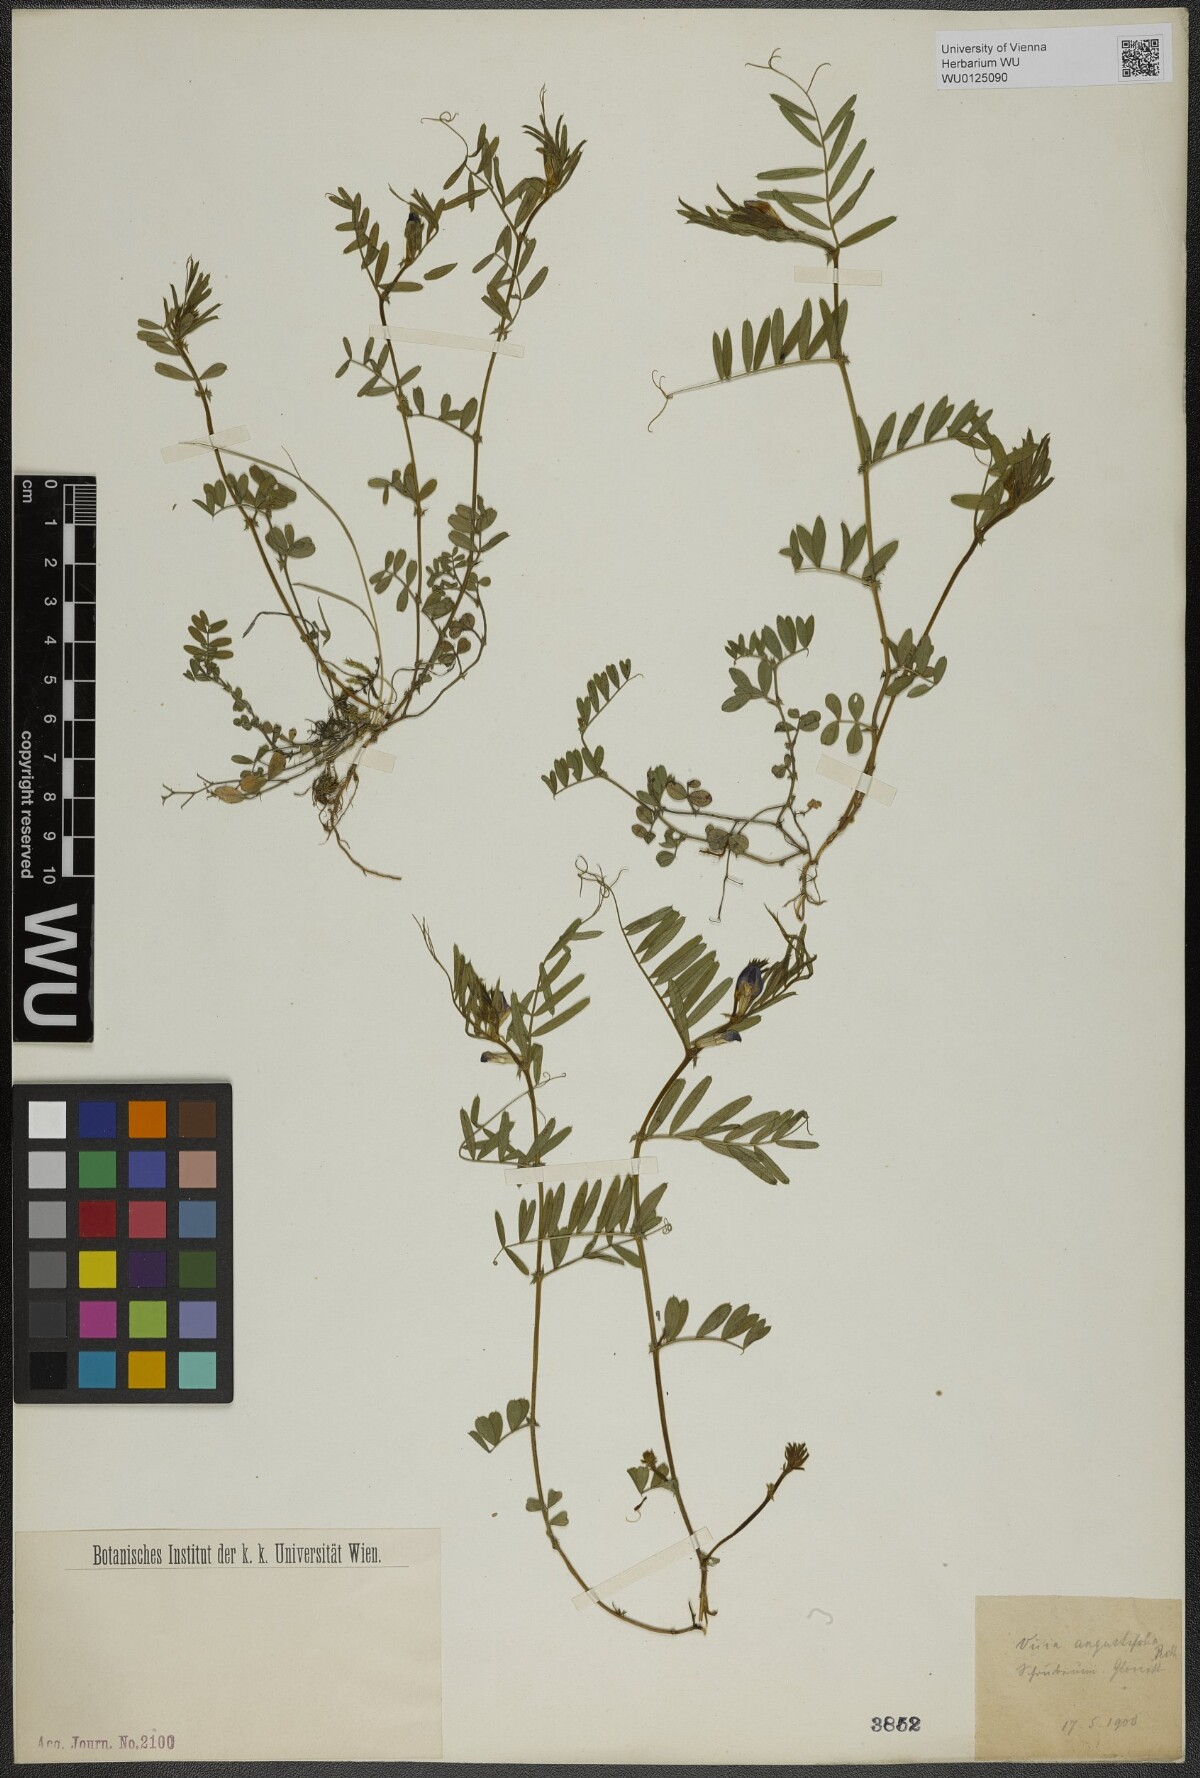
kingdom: Plantae
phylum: Tracheophyta
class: Magnoliopsida
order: Fabales
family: Fabaceae
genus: Vicia
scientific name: Vicia sativa
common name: Garden vetch
